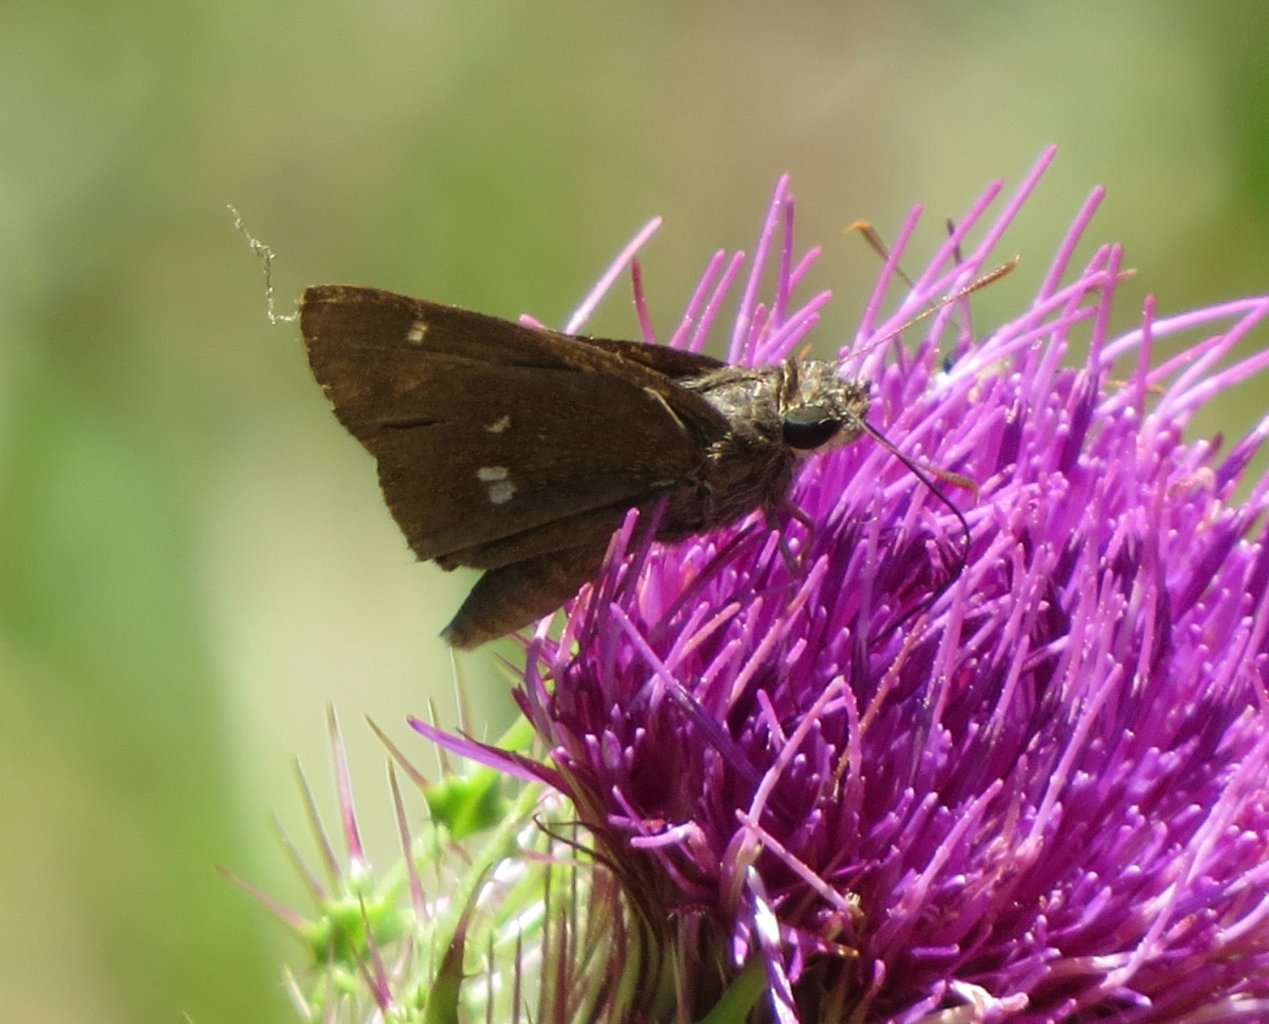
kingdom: Animalia
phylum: Arthropoda
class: Insecta
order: Lepidoptera
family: Hesperiidae
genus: Oligoria
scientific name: Oligoria maculata
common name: Twin-spot Skipper
